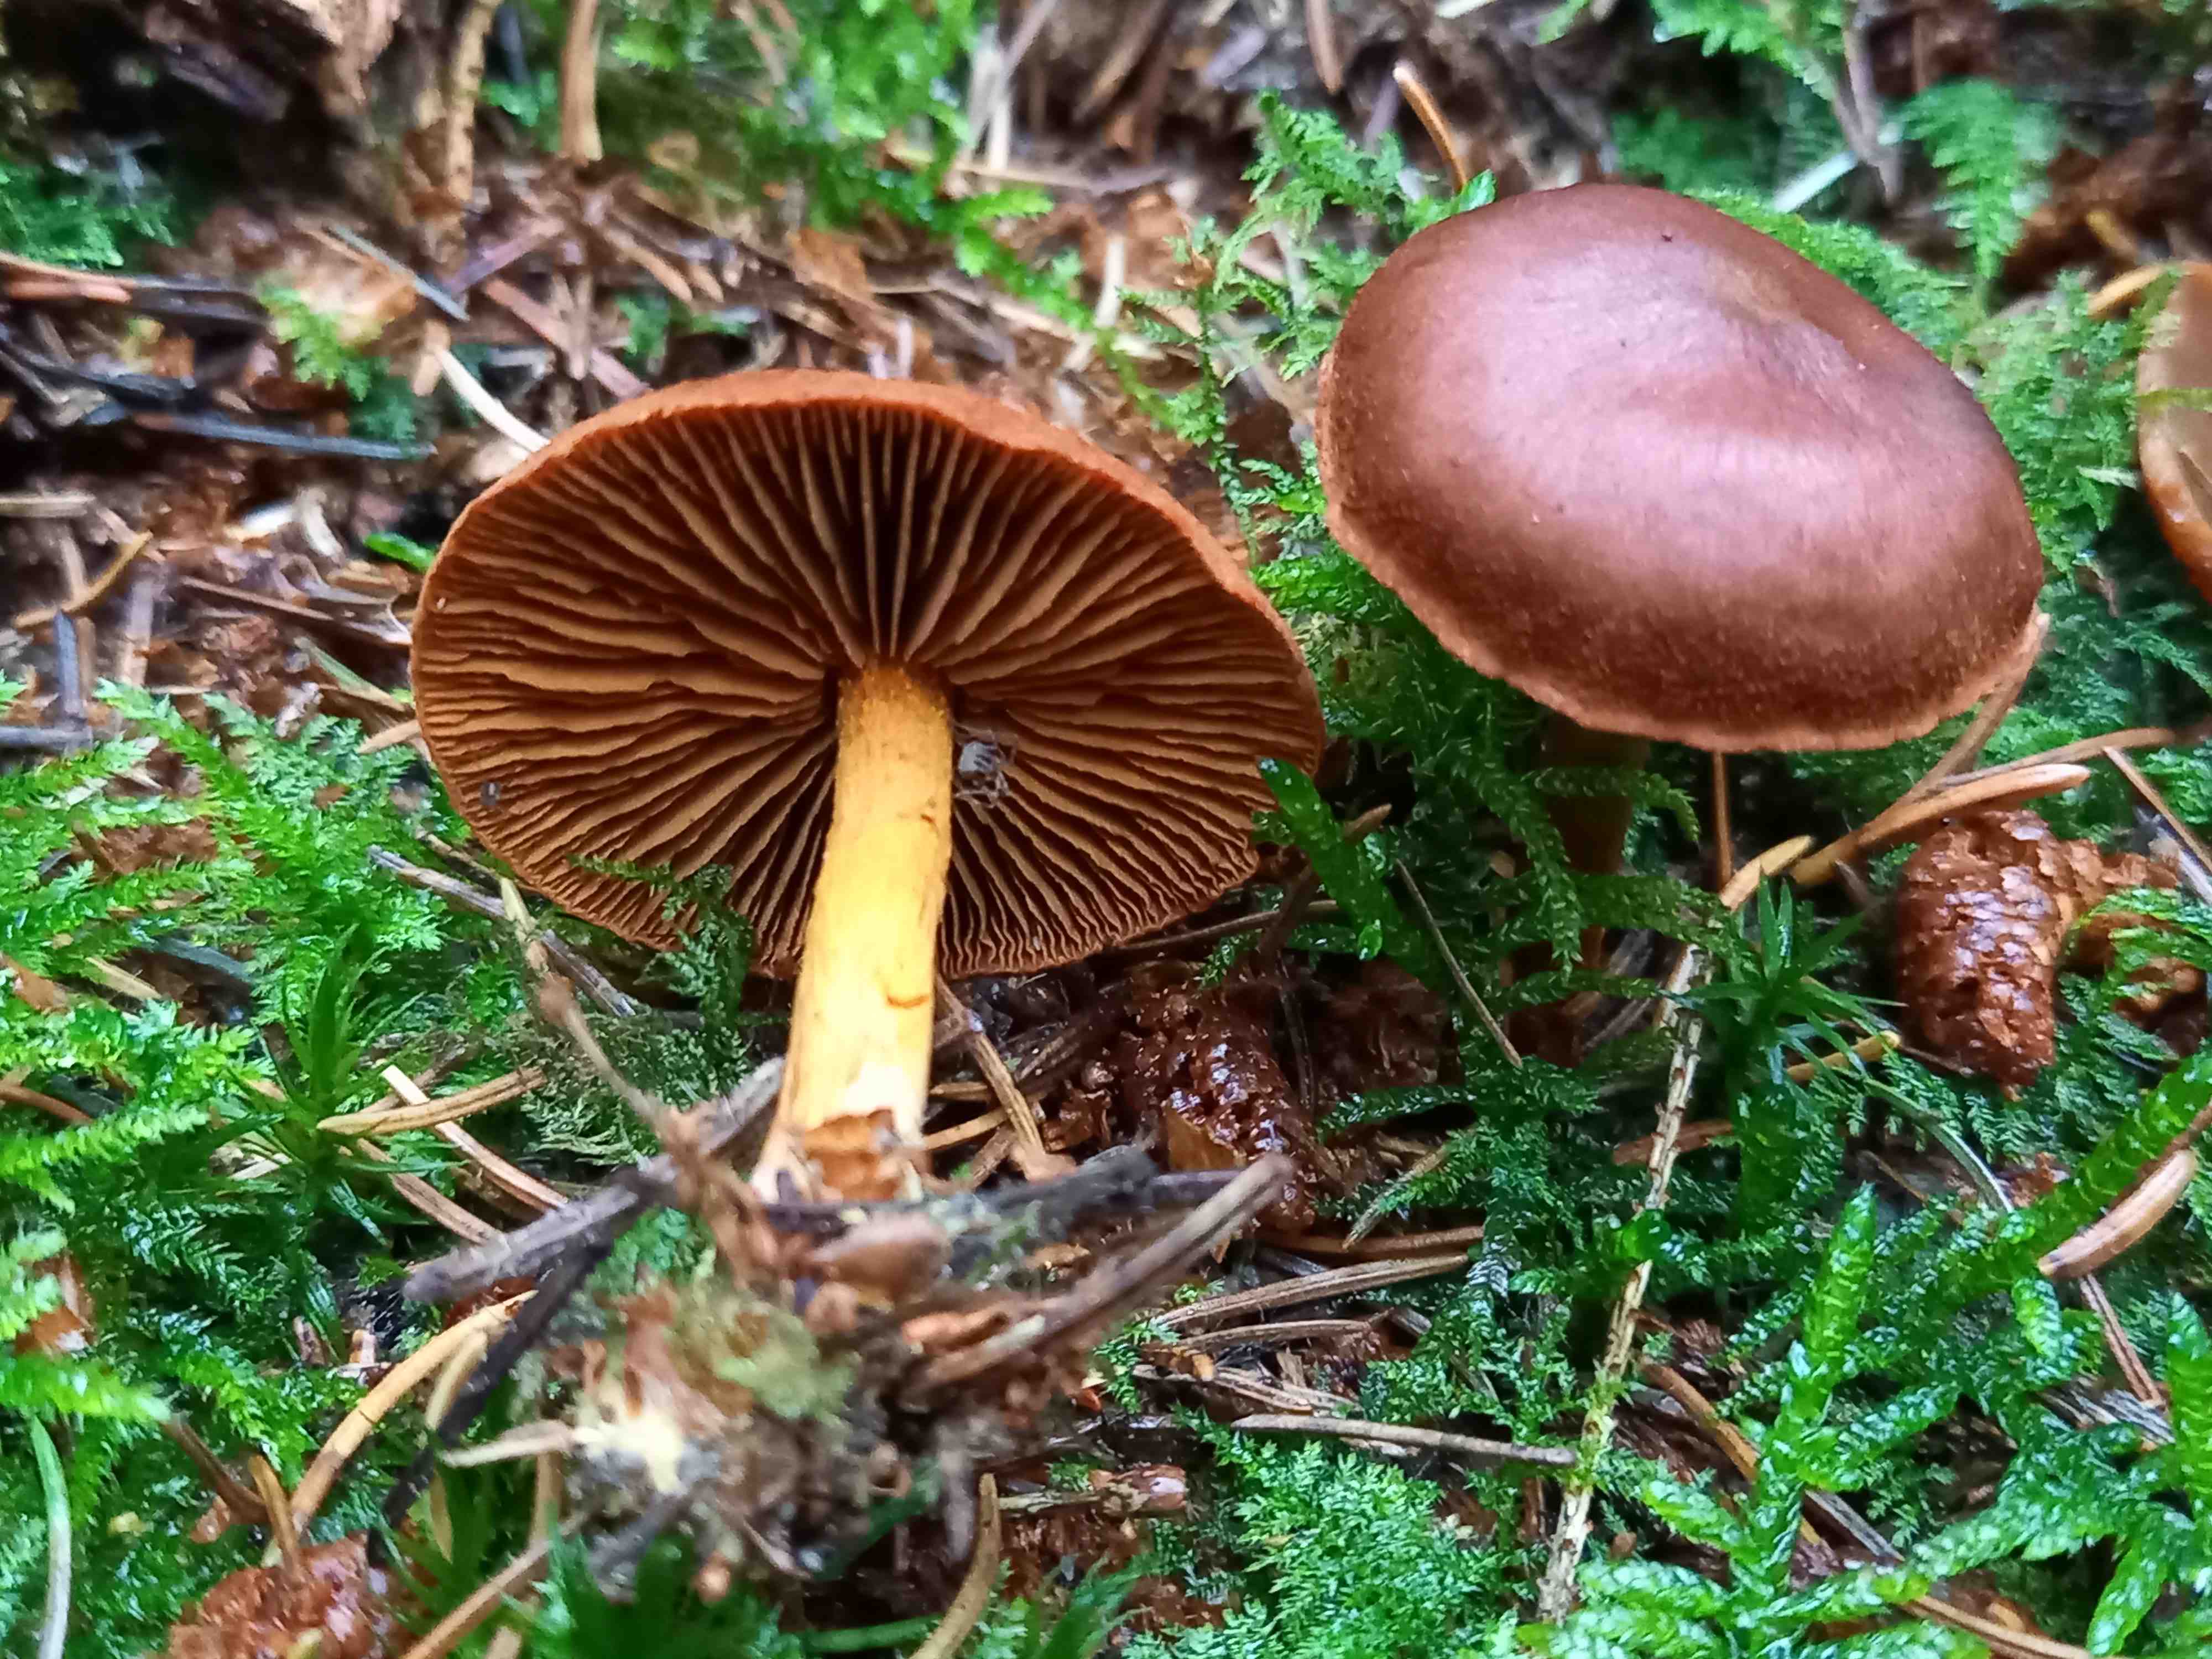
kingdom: Fungi
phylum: Basidiomycota
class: Agaricomycetes
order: Agaricales
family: Cortinariaceae
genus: Cortinarius
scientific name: Cortinarius
